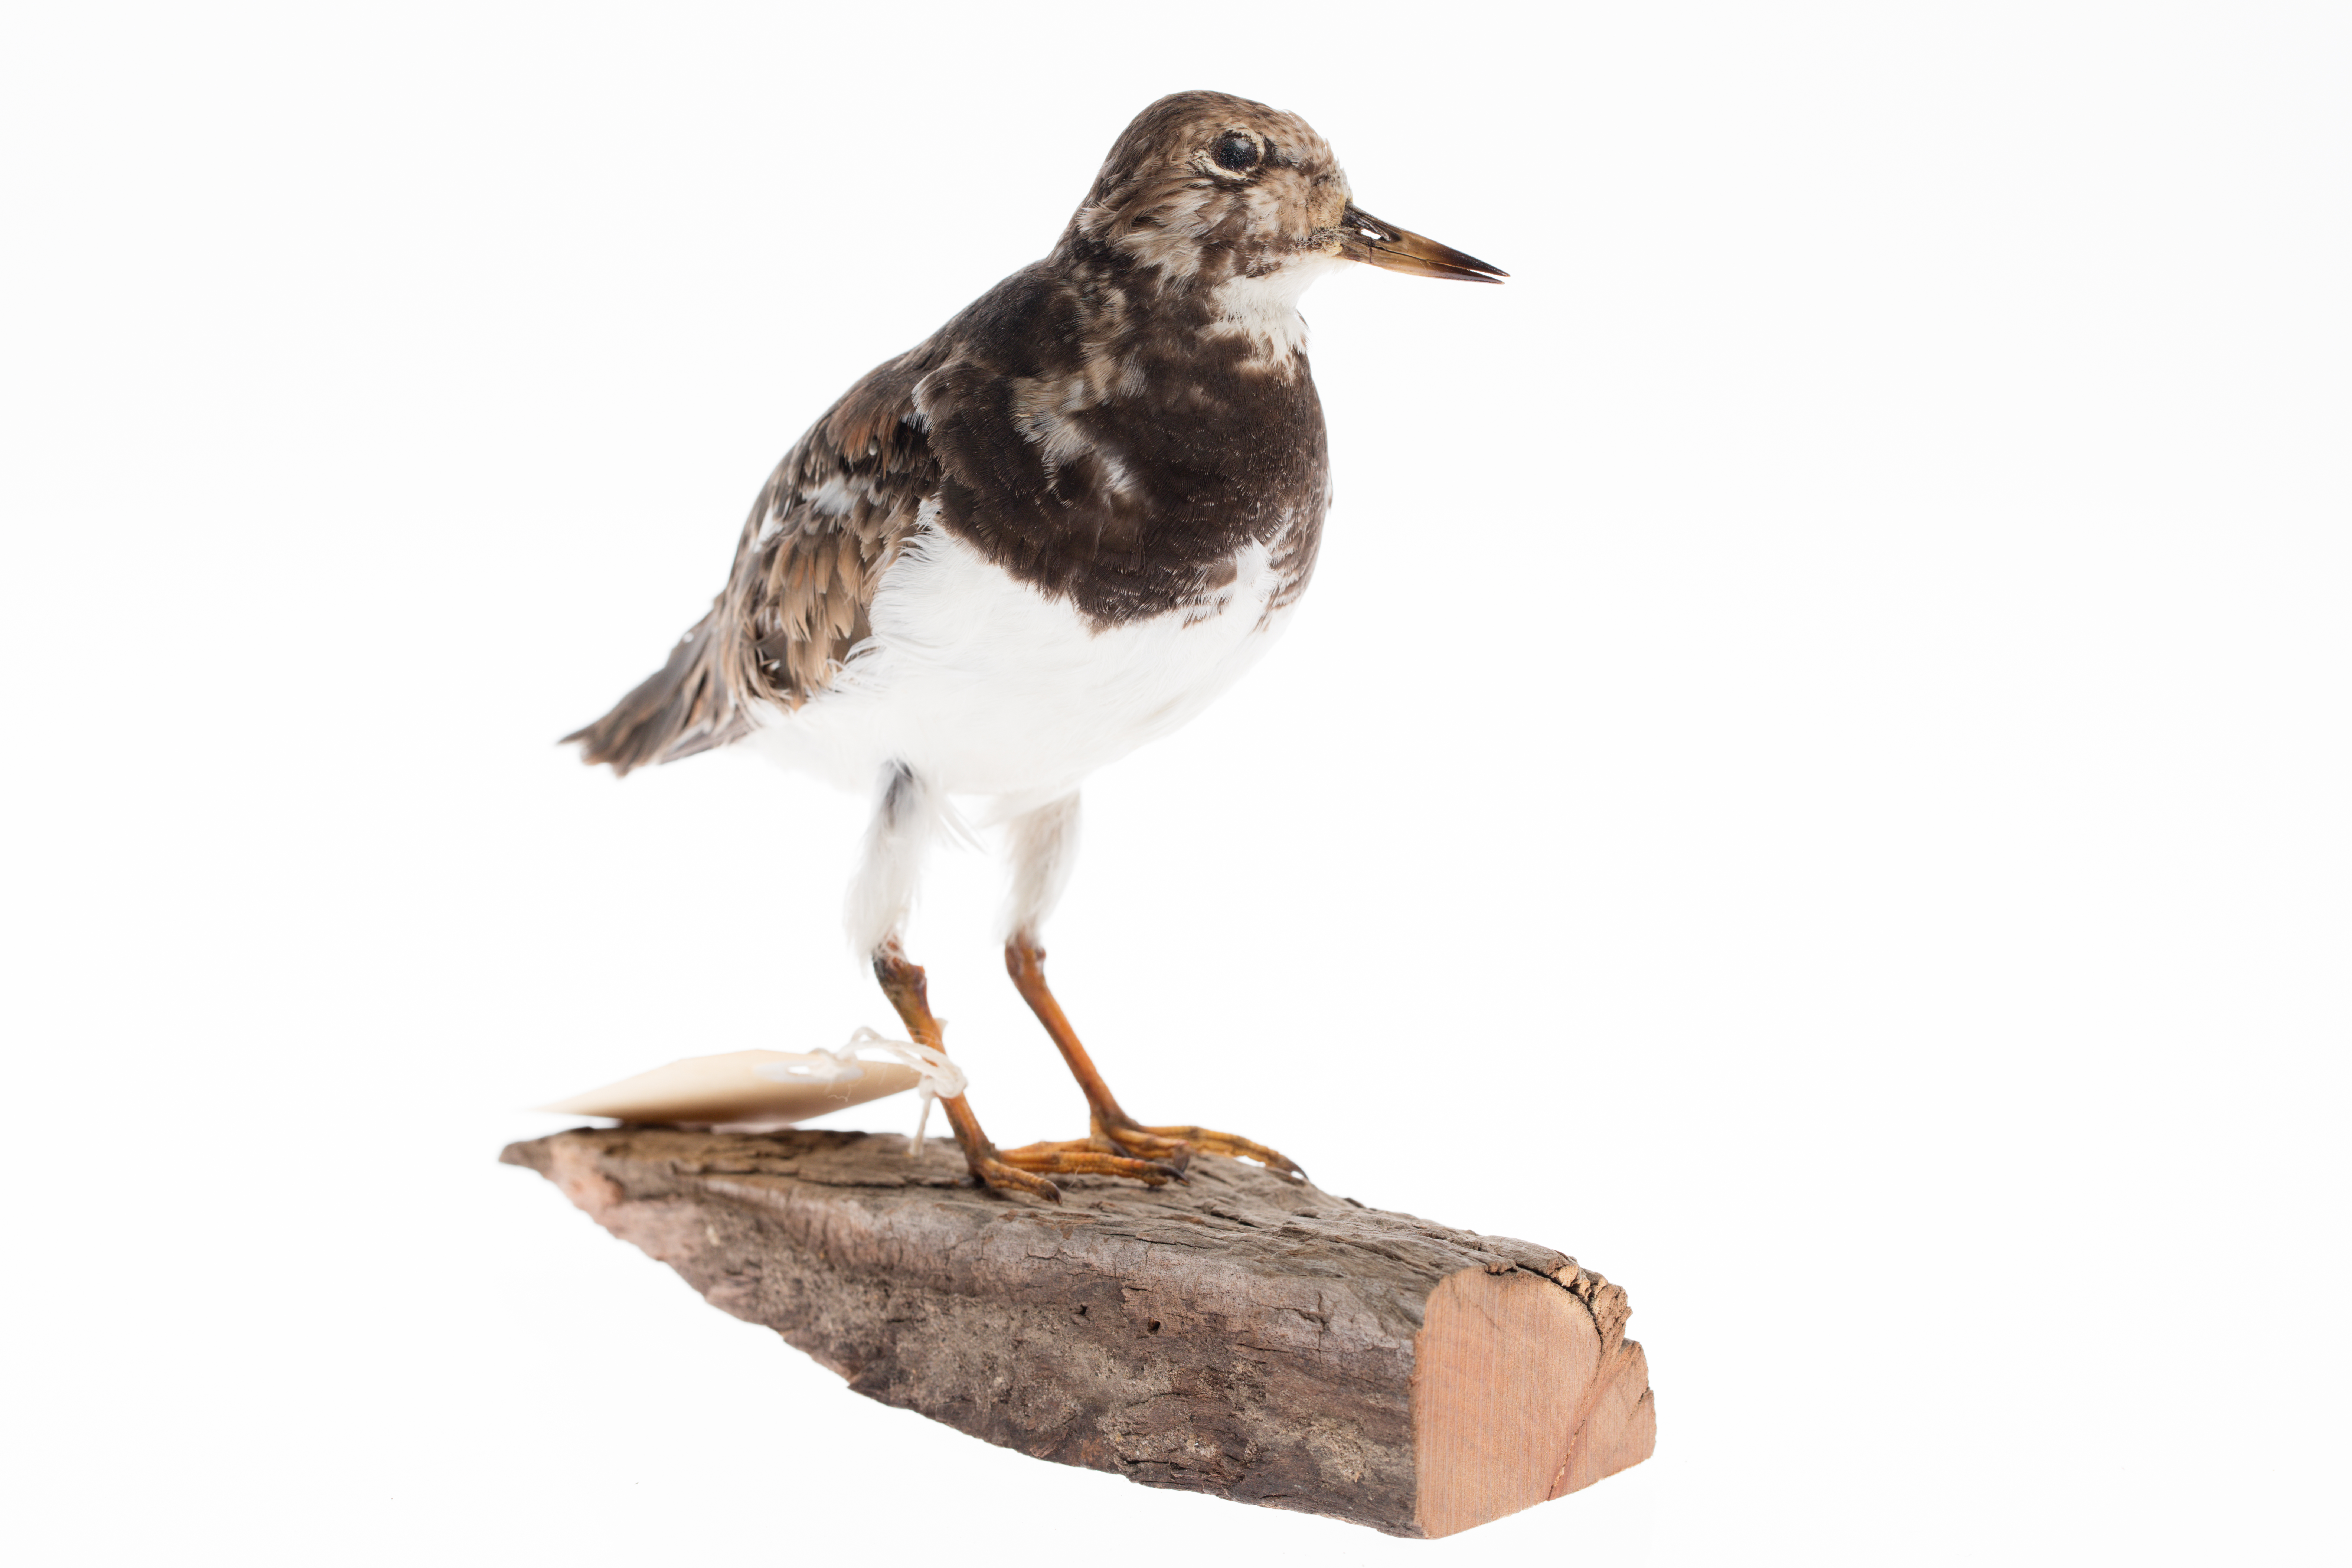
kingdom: Animalia
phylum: Chordata
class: Aves
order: Charadriiformes
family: Scolopacidae
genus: Arenaria
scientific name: Arenaria interpres
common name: Ruddy turnstone
